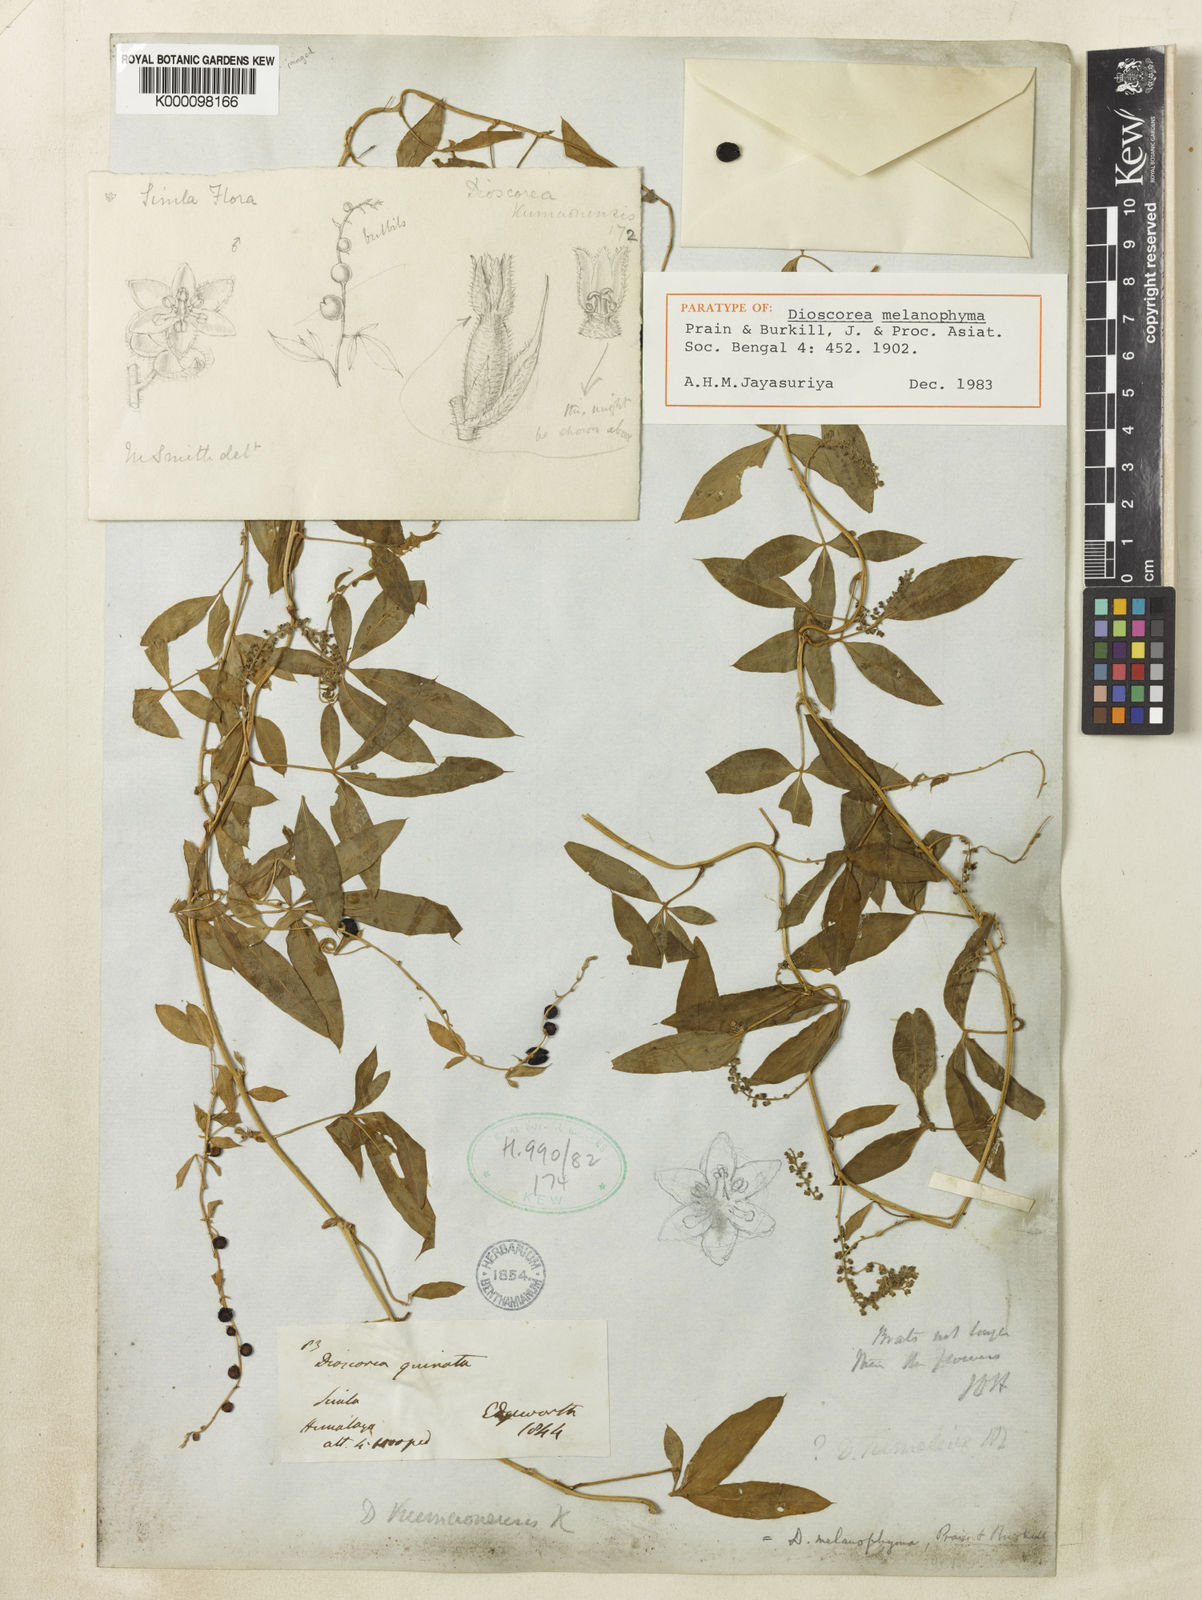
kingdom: Plantae
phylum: Tracheophyta
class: Liliopsida
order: Dioscoreales
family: Dioscoreaceae
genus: Dioscorea
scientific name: Dioscorea melanophyma
